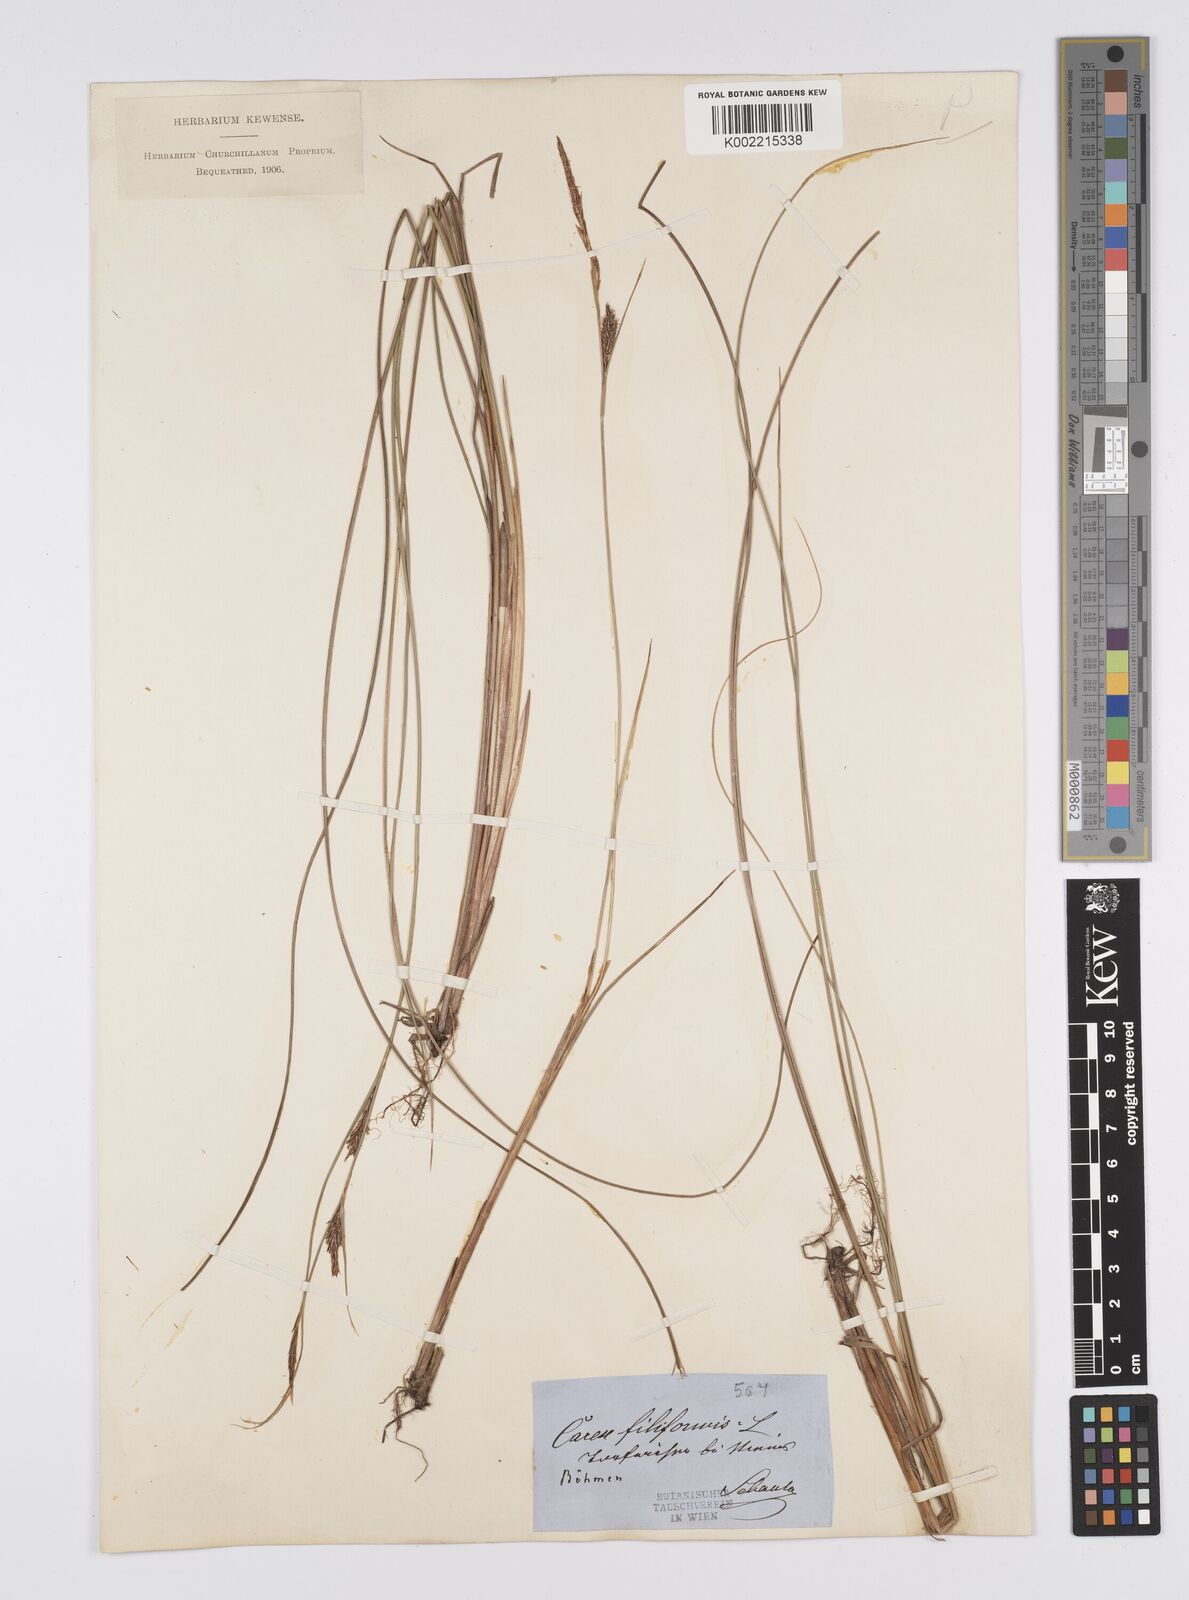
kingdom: Plantae
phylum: Tracheophyta
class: Liliopsida
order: Poales
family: Cyperaceae
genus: Carex
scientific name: Carex lasiocarpa
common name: Slender sedge
